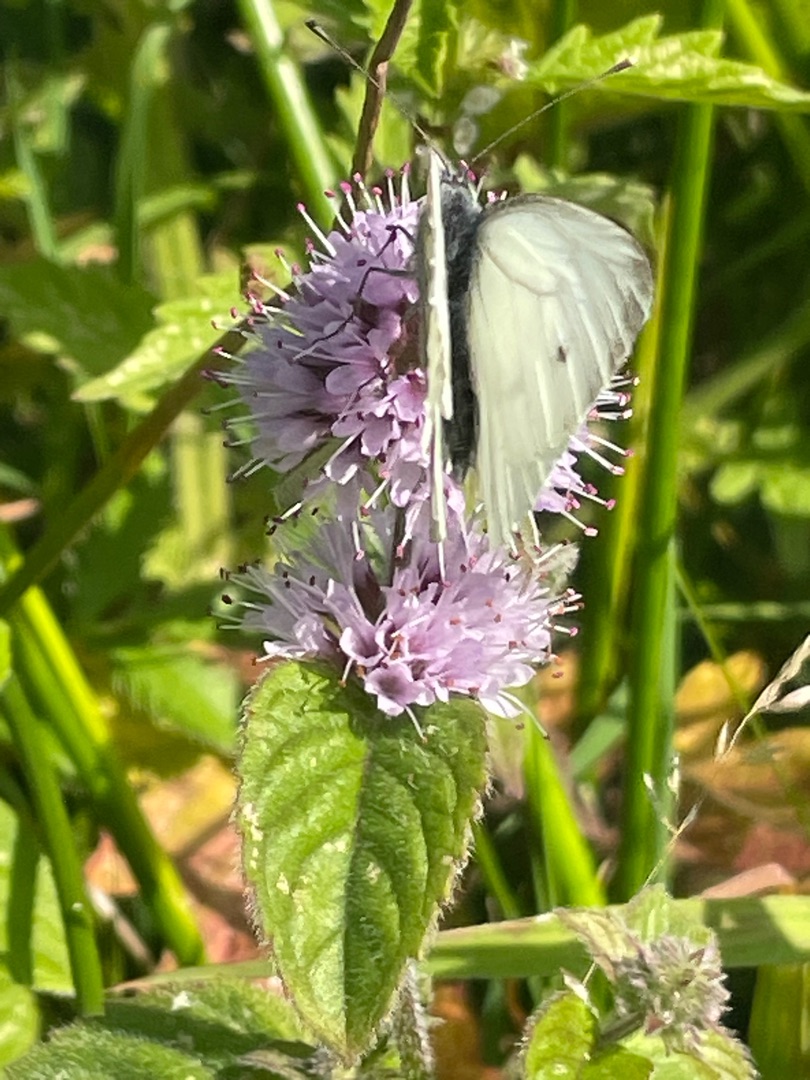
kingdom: Animalia
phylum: Arthropoda
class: Insecta
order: Lepidoptera
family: Pieridae
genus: Pieris
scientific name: Pieris napi
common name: Grønåret kålsommerfugl
